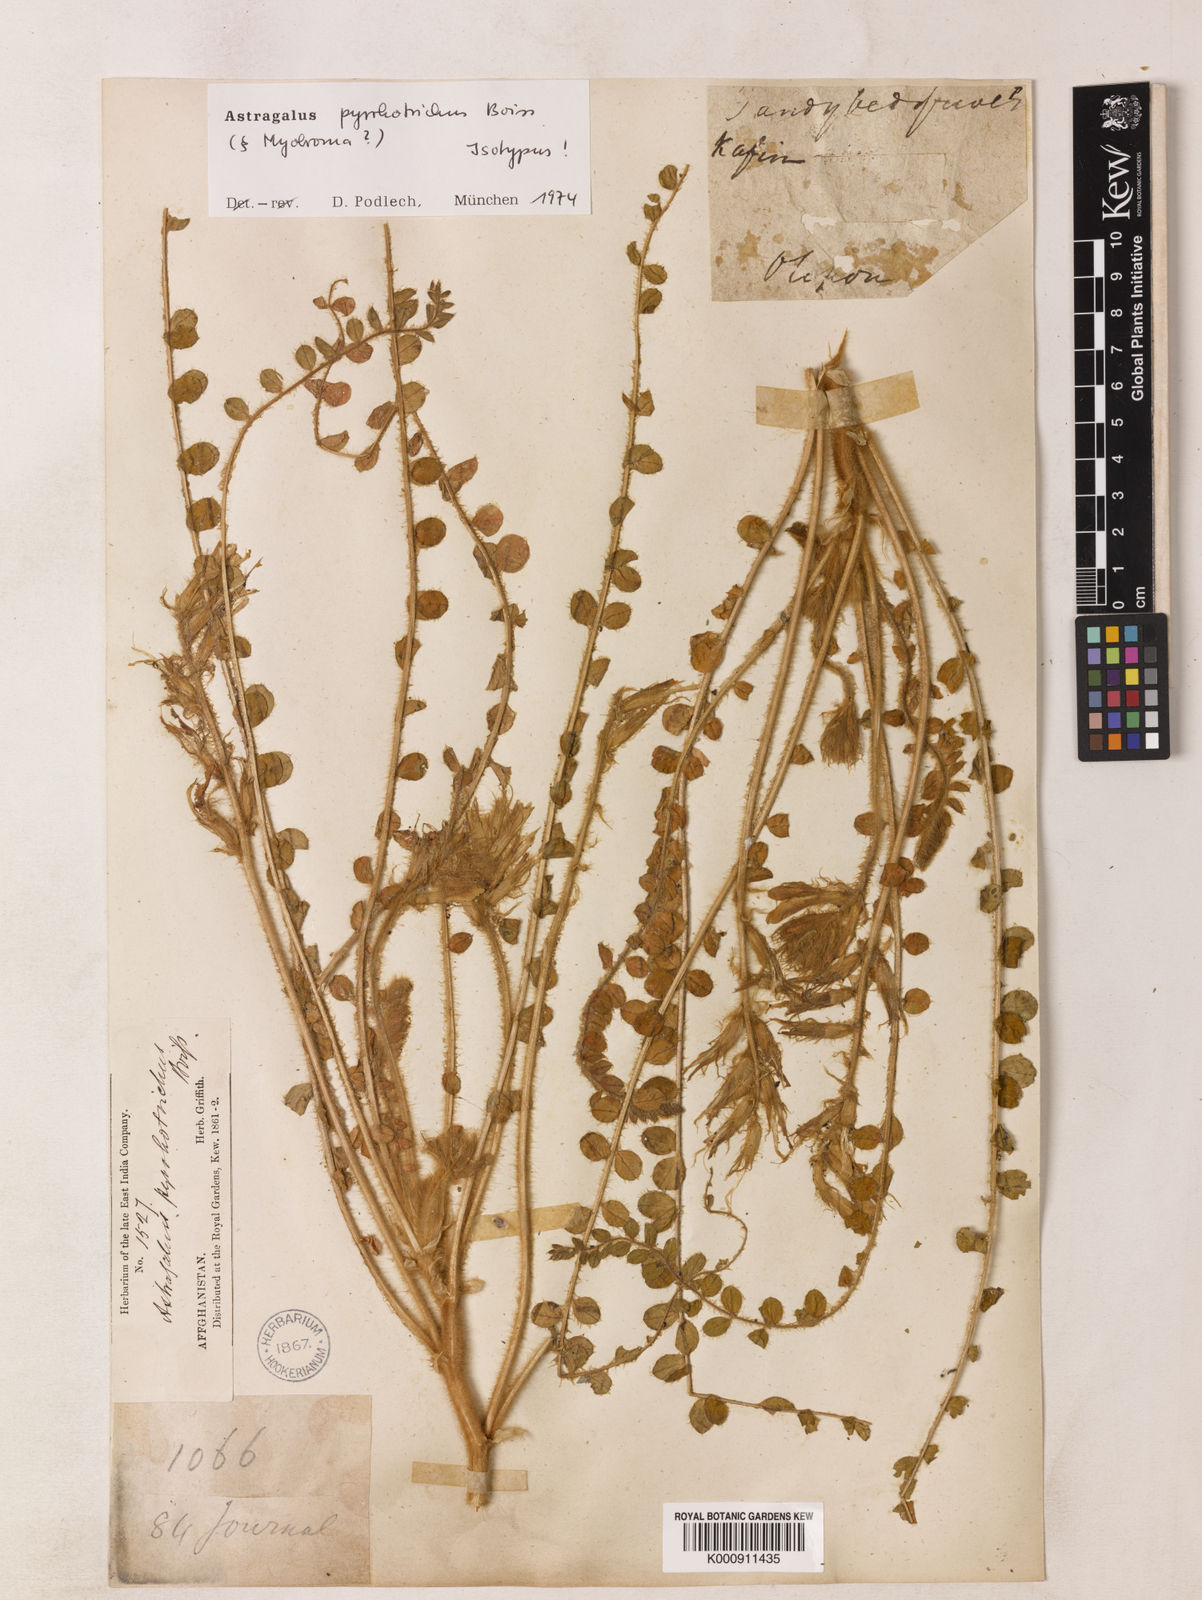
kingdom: Plantae
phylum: Tracheophyta
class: Magnoliopsida
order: Fabales
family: Fabaceae
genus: Astragalus
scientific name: Astragalus pyrrhotrichus
